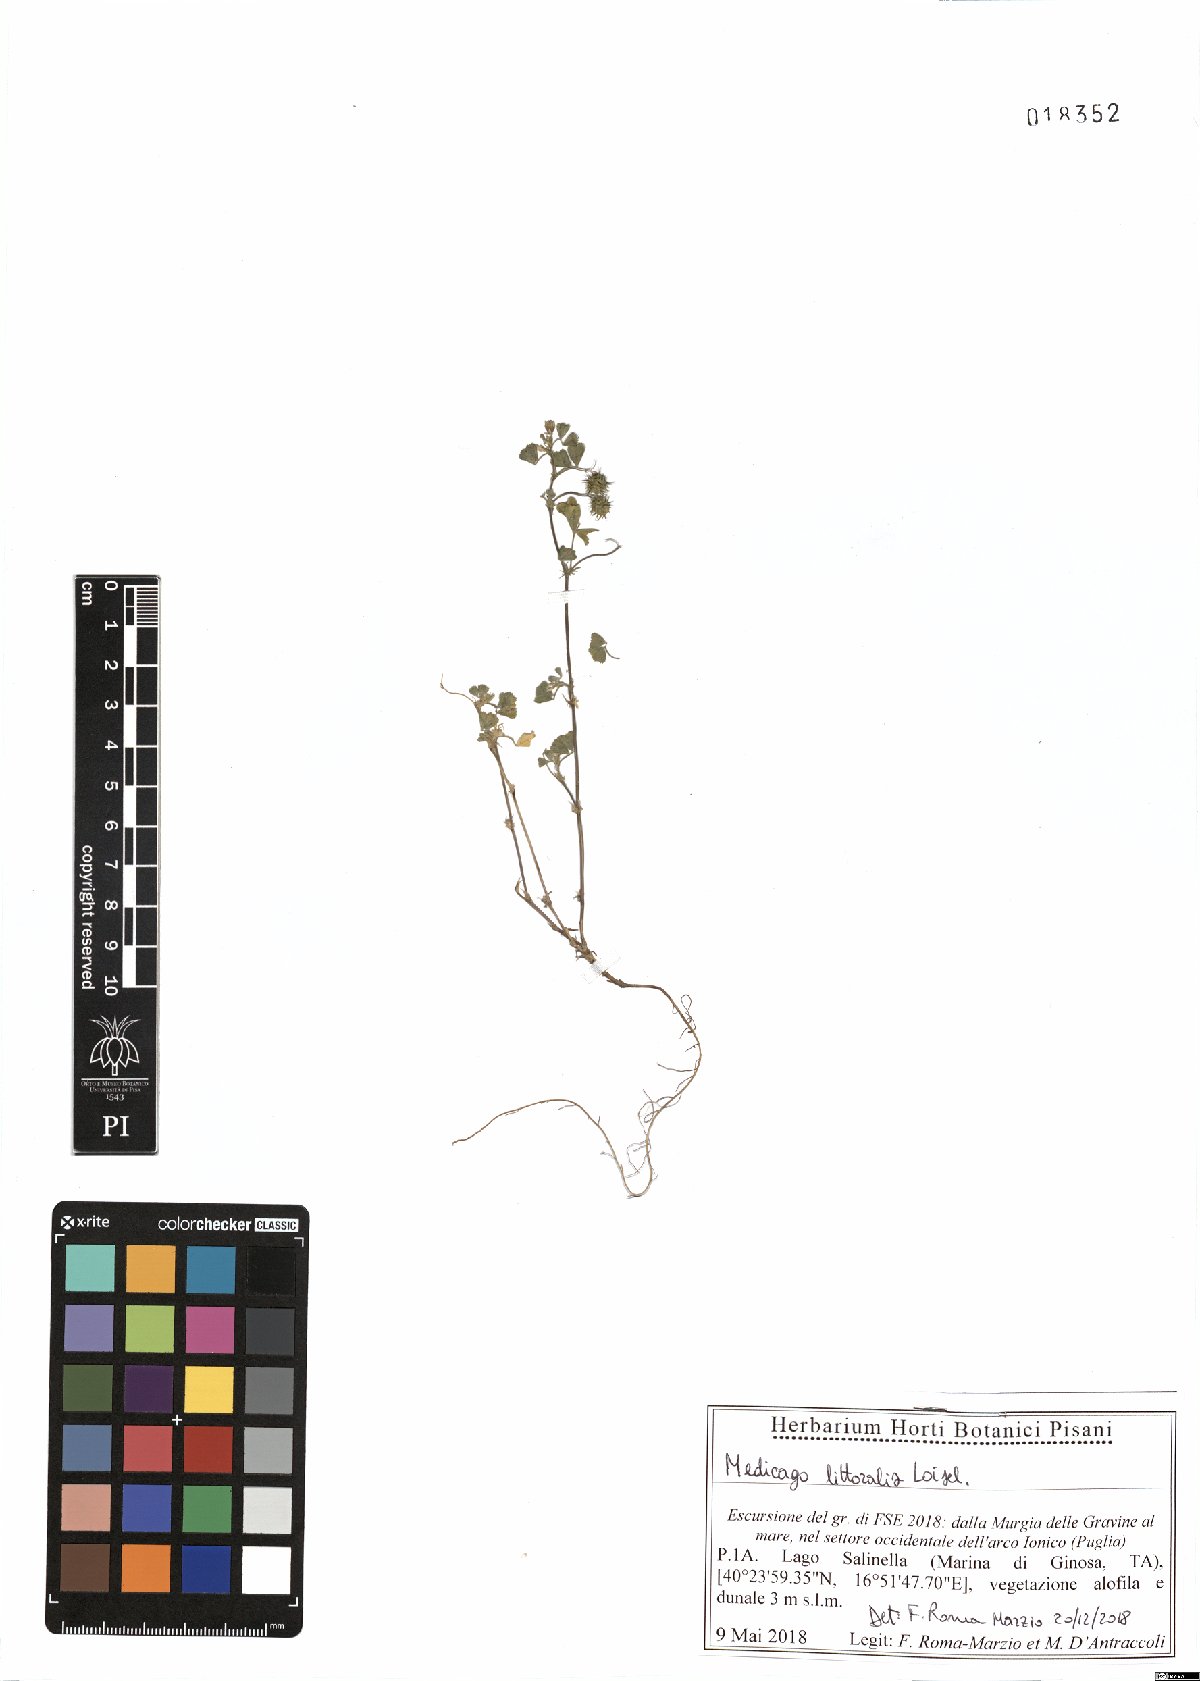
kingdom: Plantae
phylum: Tracheophyta
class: Magnoliopsida
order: Fabales
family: Fabaceae
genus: Medicago
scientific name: Medicago littoralis
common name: Shore medick
